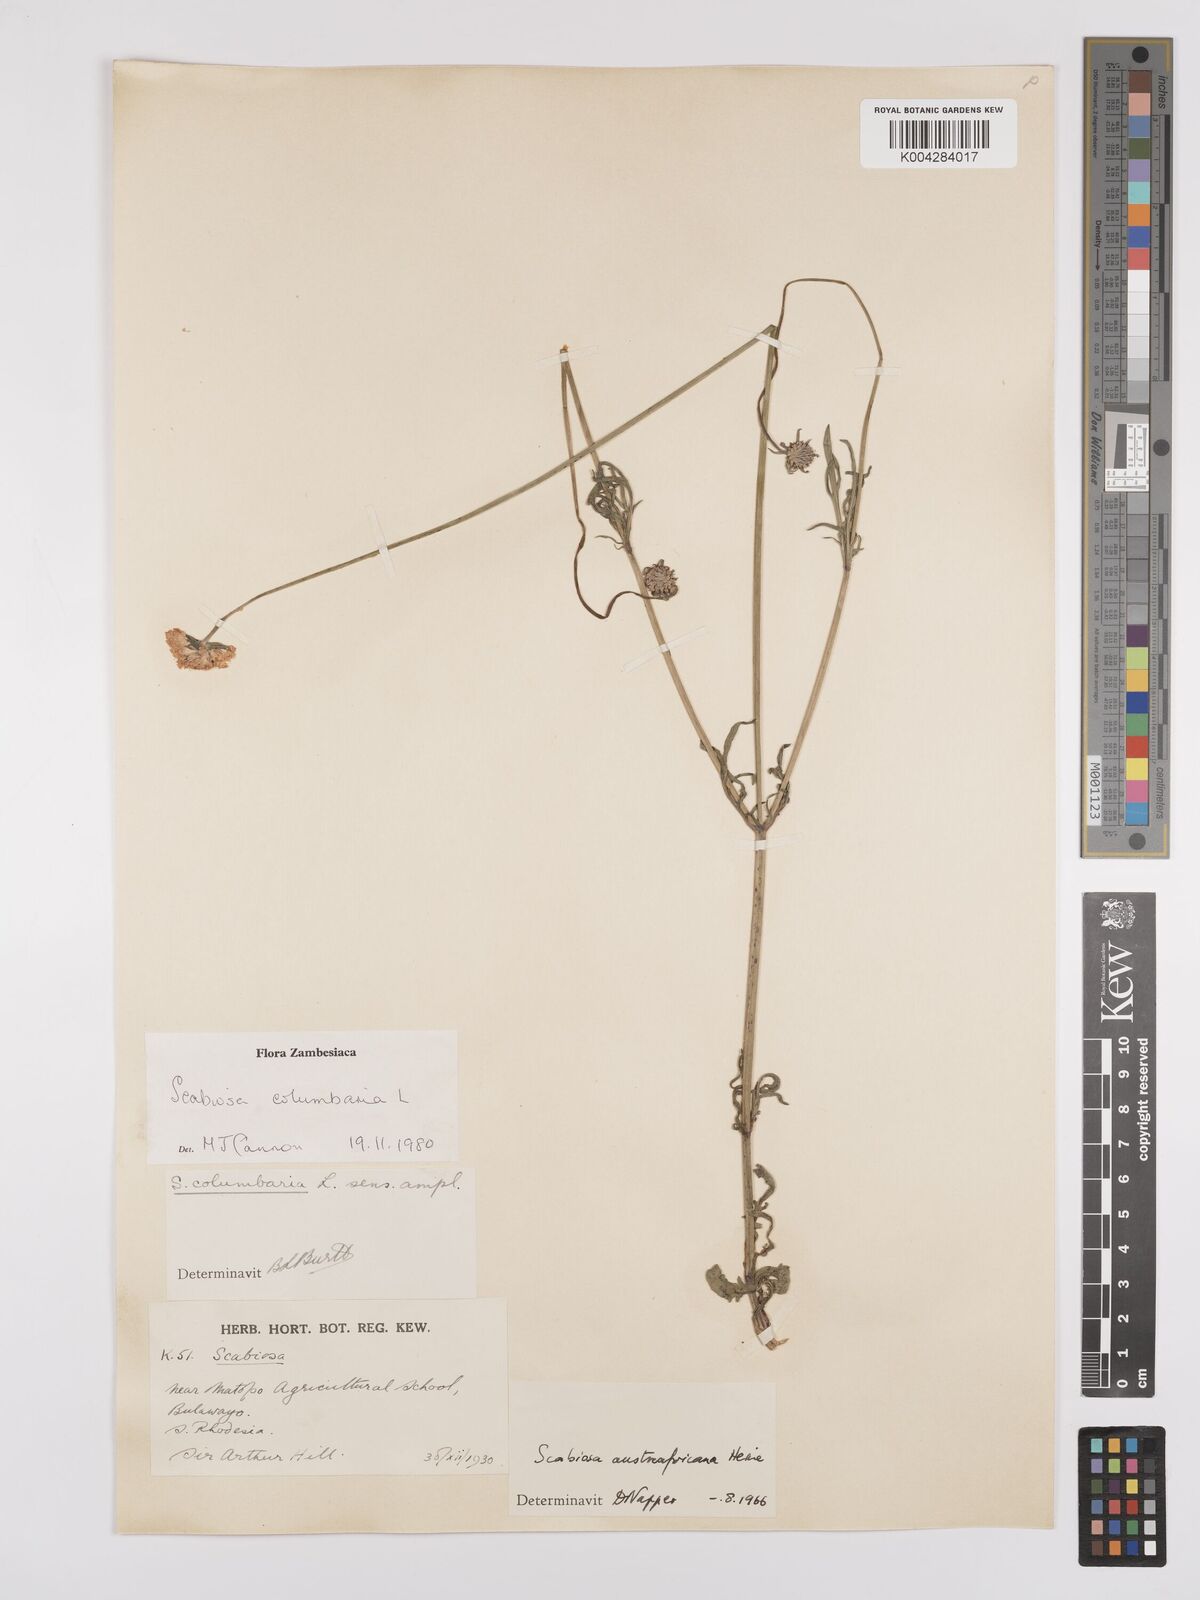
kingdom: Plantae
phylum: Tracheophyta
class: Magnoliopsida
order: Dipsacales
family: Caprifoliaceae
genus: Scabiosa
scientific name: Scabiosa austroafricana
